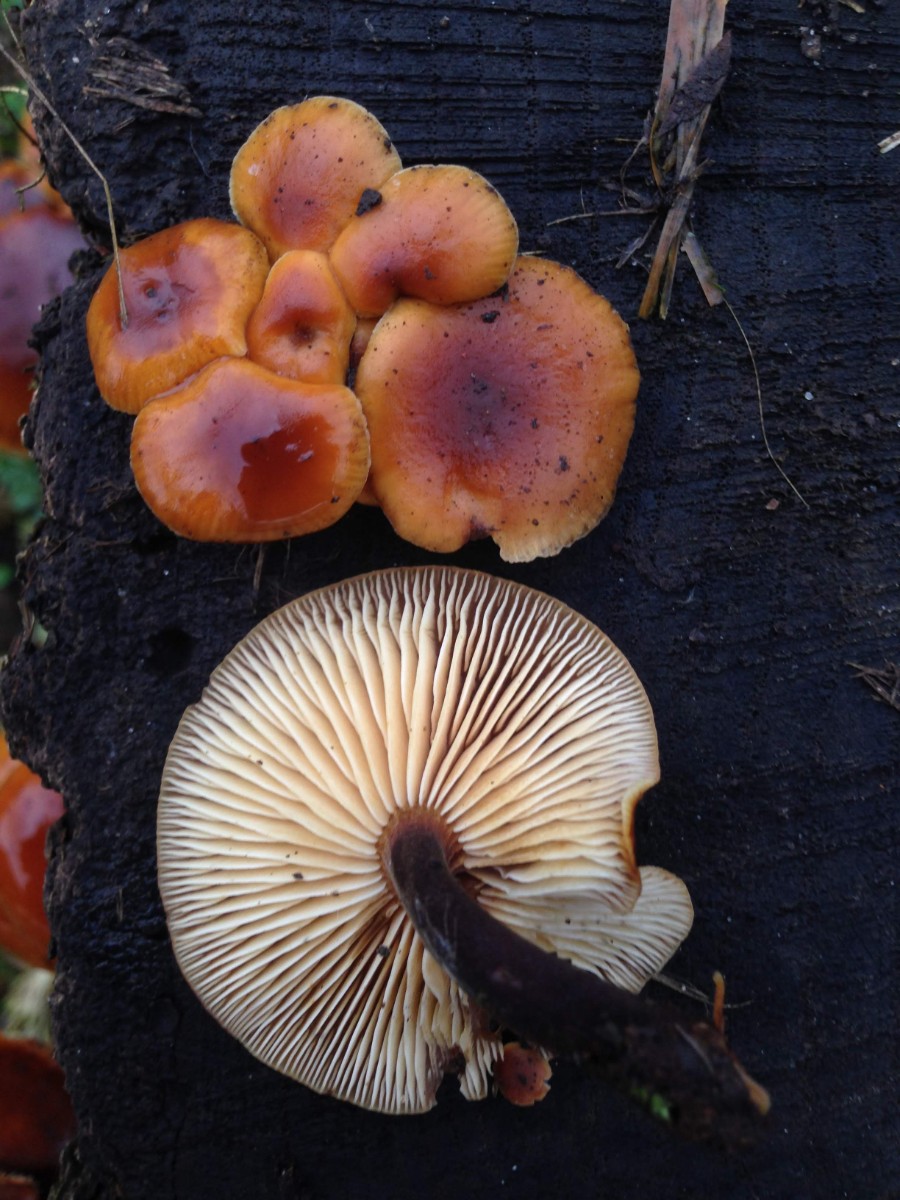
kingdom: Fungi
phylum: Basidiomycota
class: Agaricomycetes
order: Agaricales
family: Physalacriaceae
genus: Flammulina
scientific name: Flammulina velutipes
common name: gul fløjlsfod
